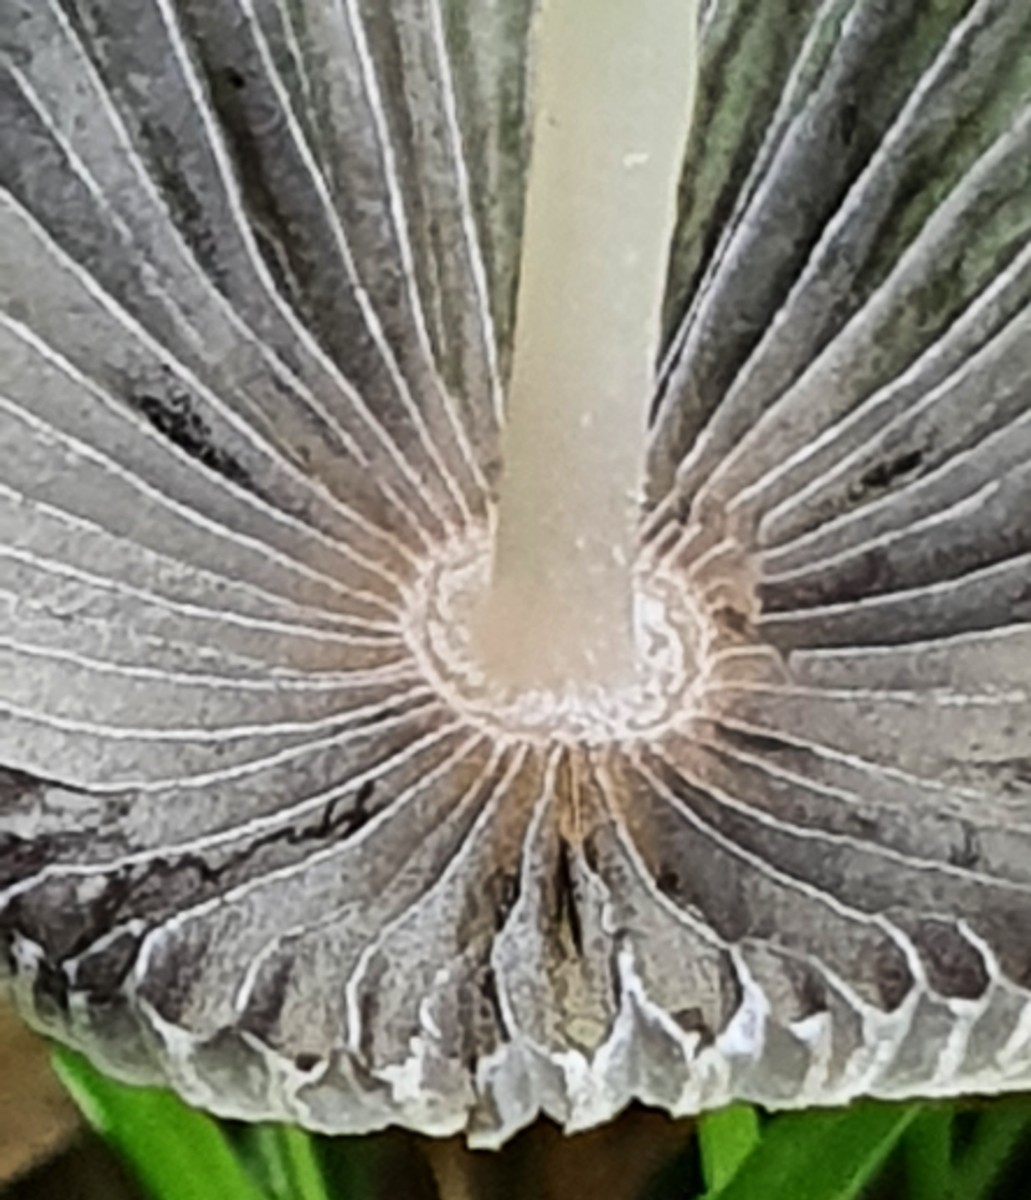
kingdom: Fungi
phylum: Basidiomycota
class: Agaricomycetes
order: Agaricales
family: Psathyrellaceae
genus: Parasola
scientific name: Parasola
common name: hjulhat
